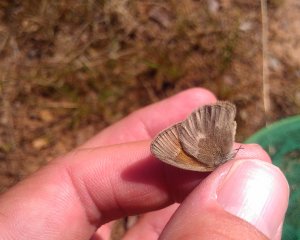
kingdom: Animalia
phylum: Arthropoda
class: Insecta
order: Lepidoptera
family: Nymphalidae
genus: Coenonympha
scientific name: Coenonympha tullia
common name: Large Heath
